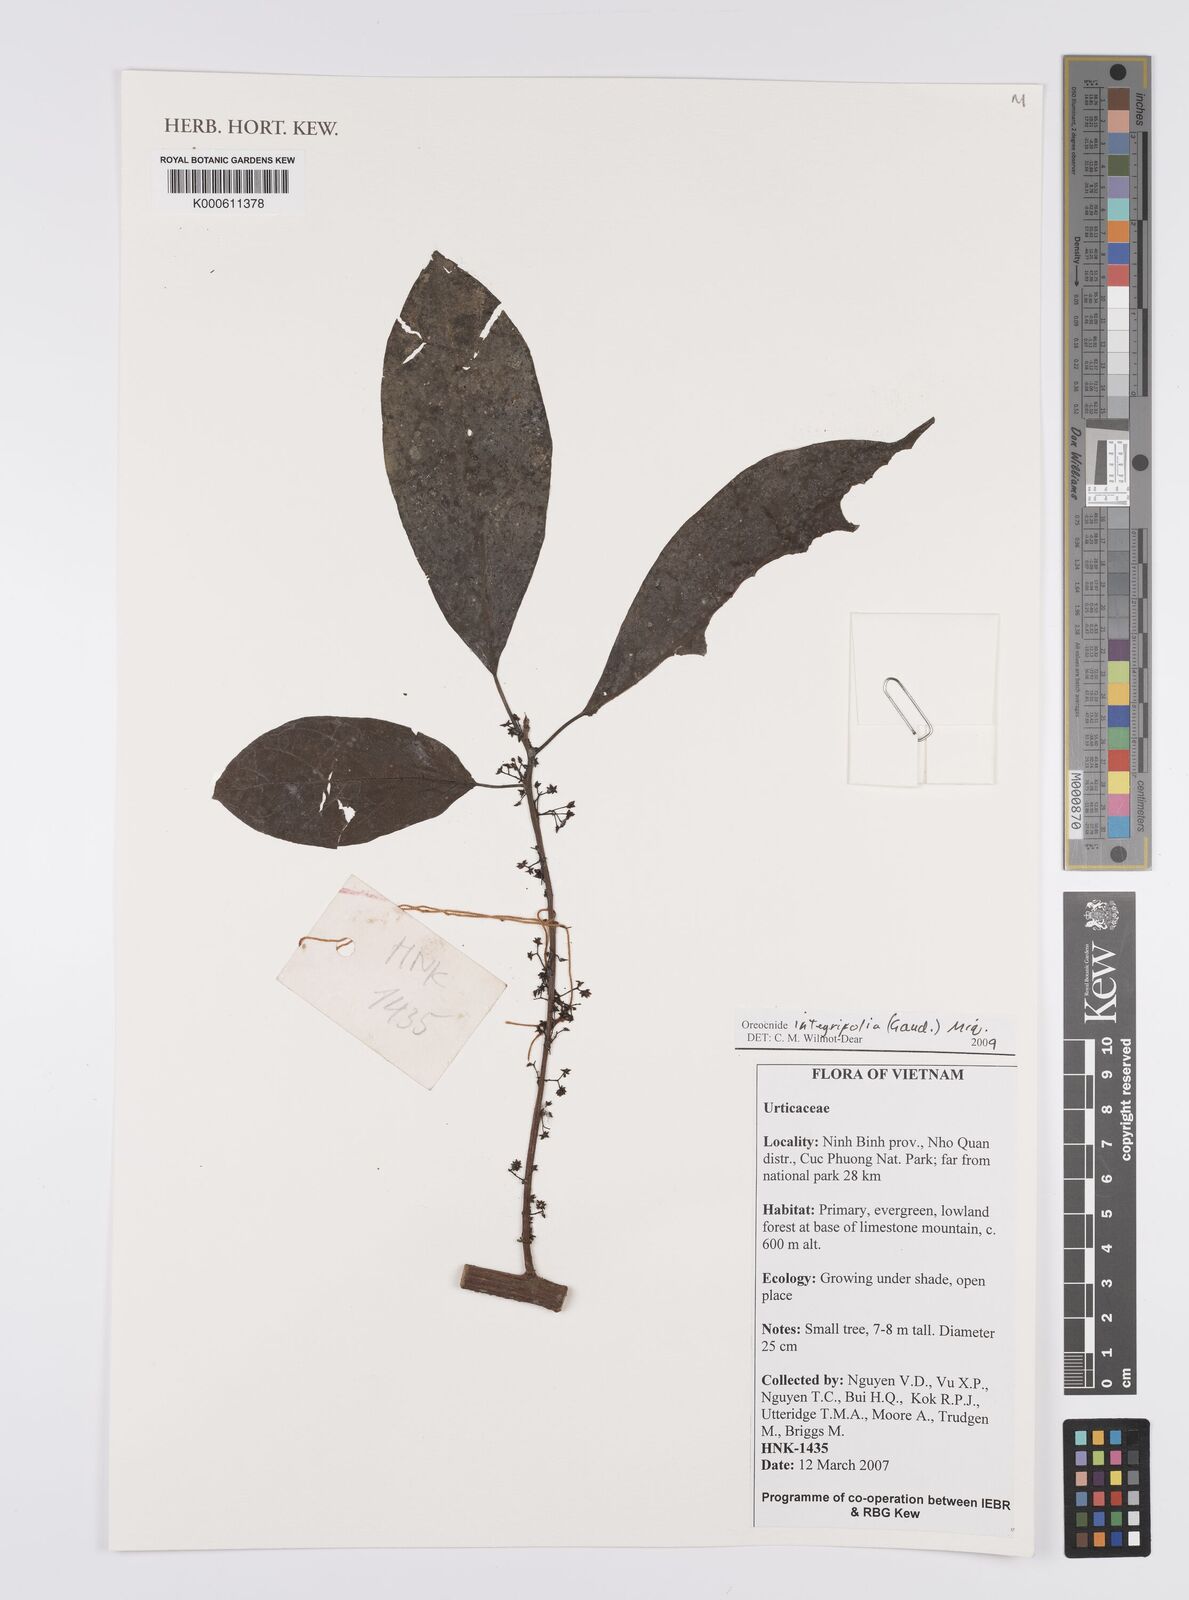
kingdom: Plantae
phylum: Tracheophyta
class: Magnoliopsida
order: Rosales
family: Urticaceae
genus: Oreocnide
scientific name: Oreocnide integrifolia
